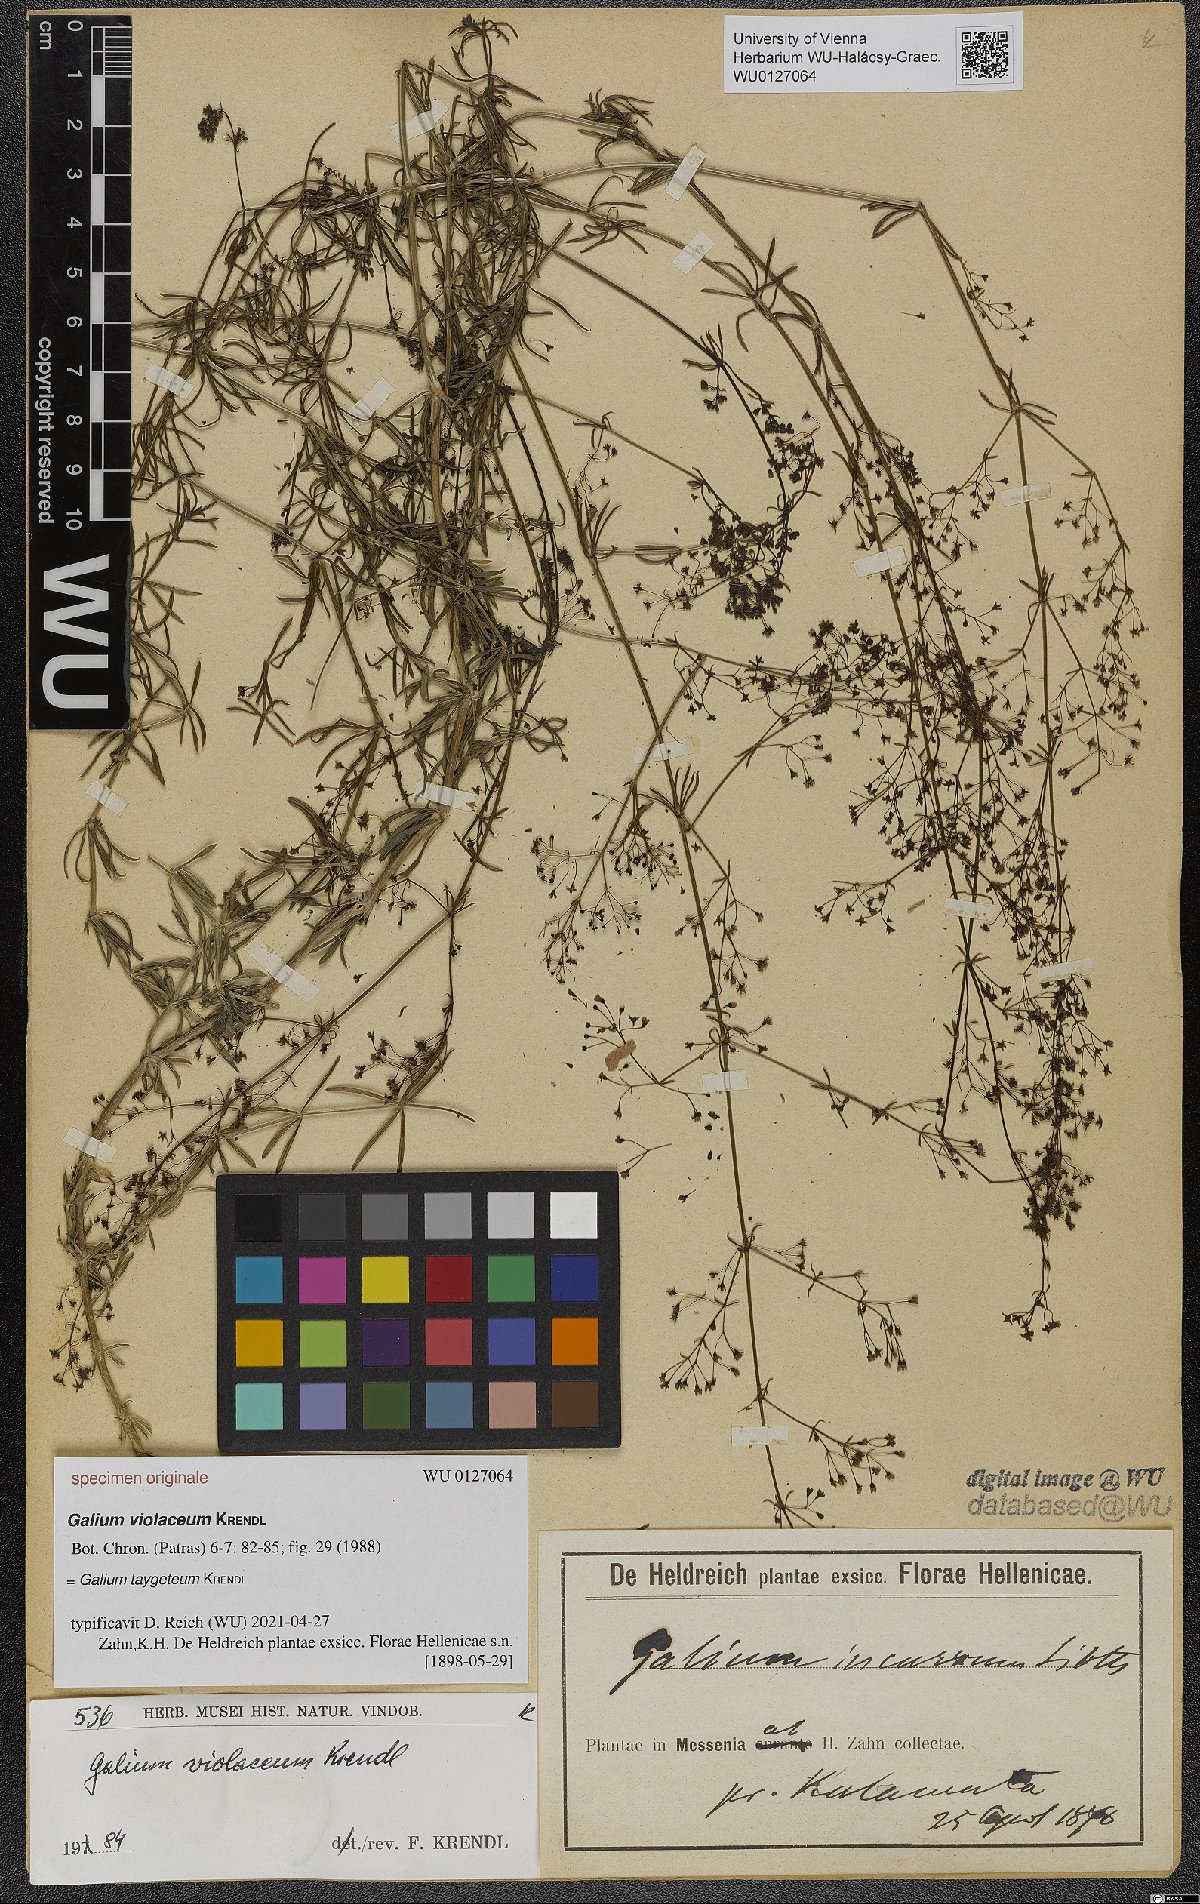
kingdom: Plantae
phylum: Tracheophyta
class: Magnoliopsida
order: Gentianales
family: Rubiaceae
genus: Galium
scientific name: Galium taygeteum
